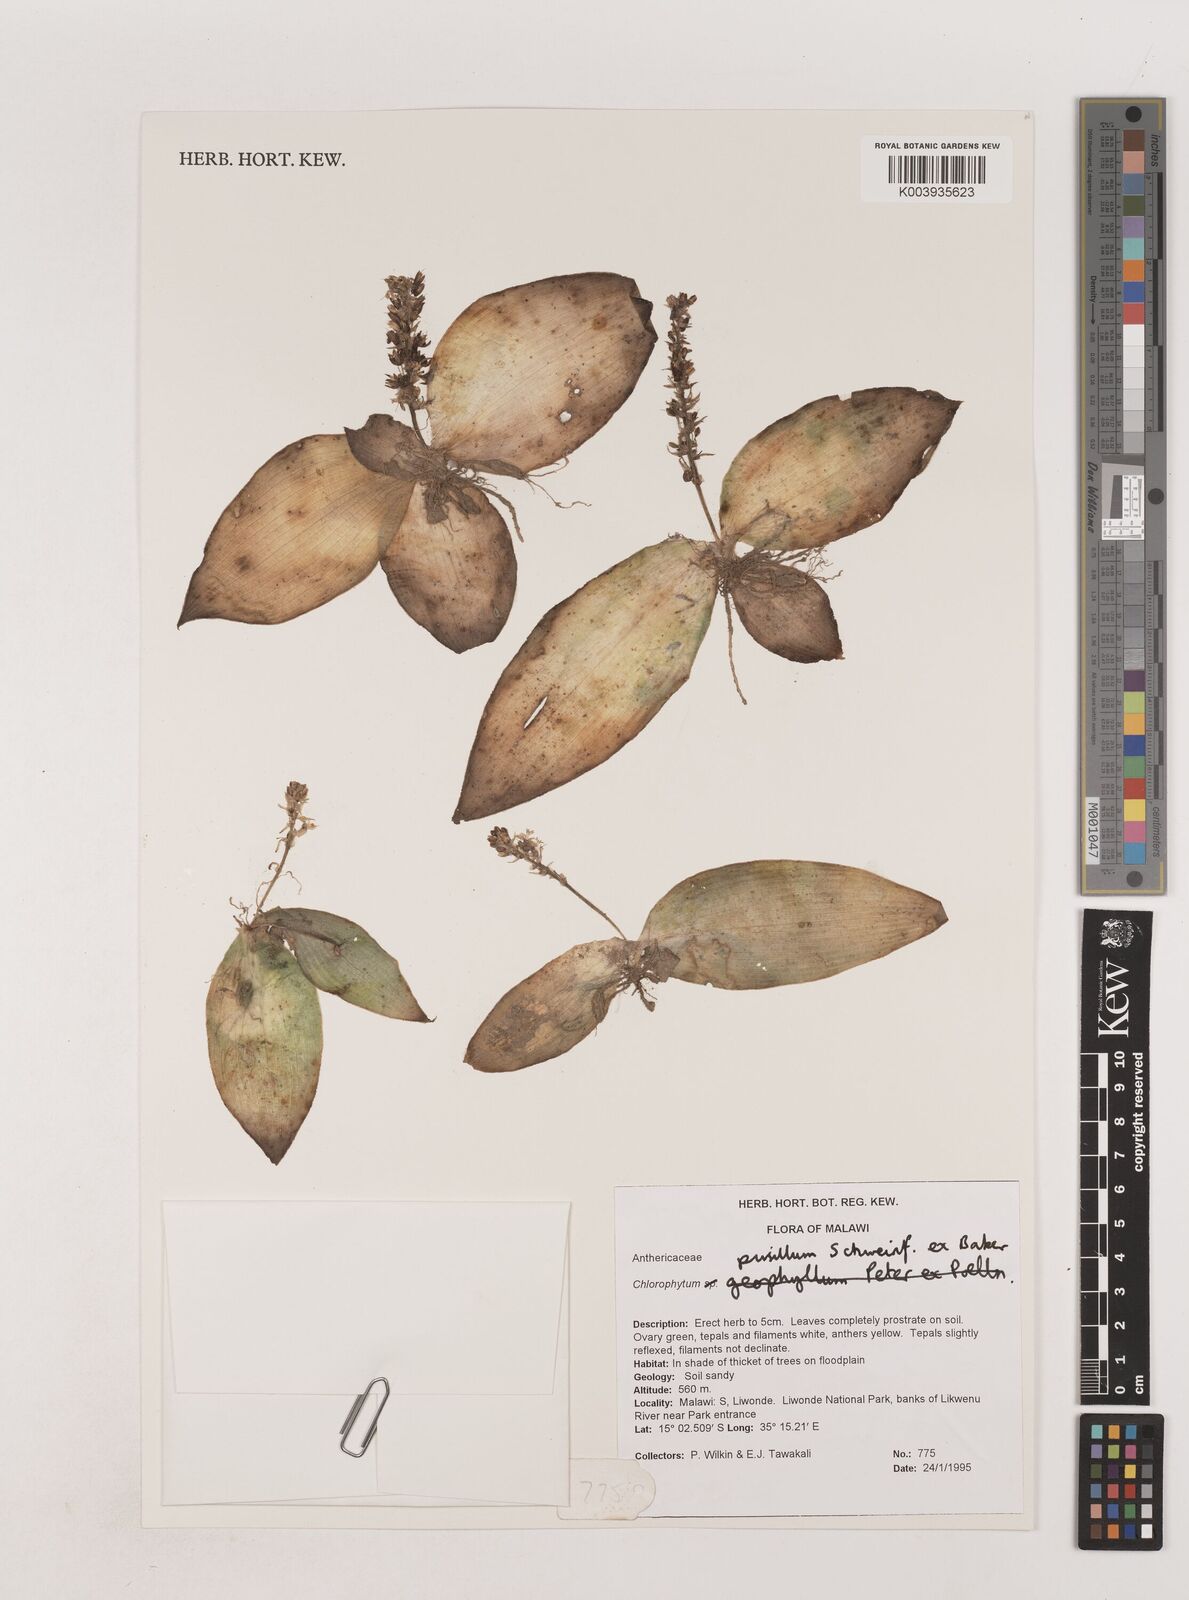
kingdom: Plantae
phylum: Tracheophyta
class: Liliopsida
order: Asparagales
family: Asparagaceae
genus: Chlorophytum
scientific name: Chlorophytum pusillum
